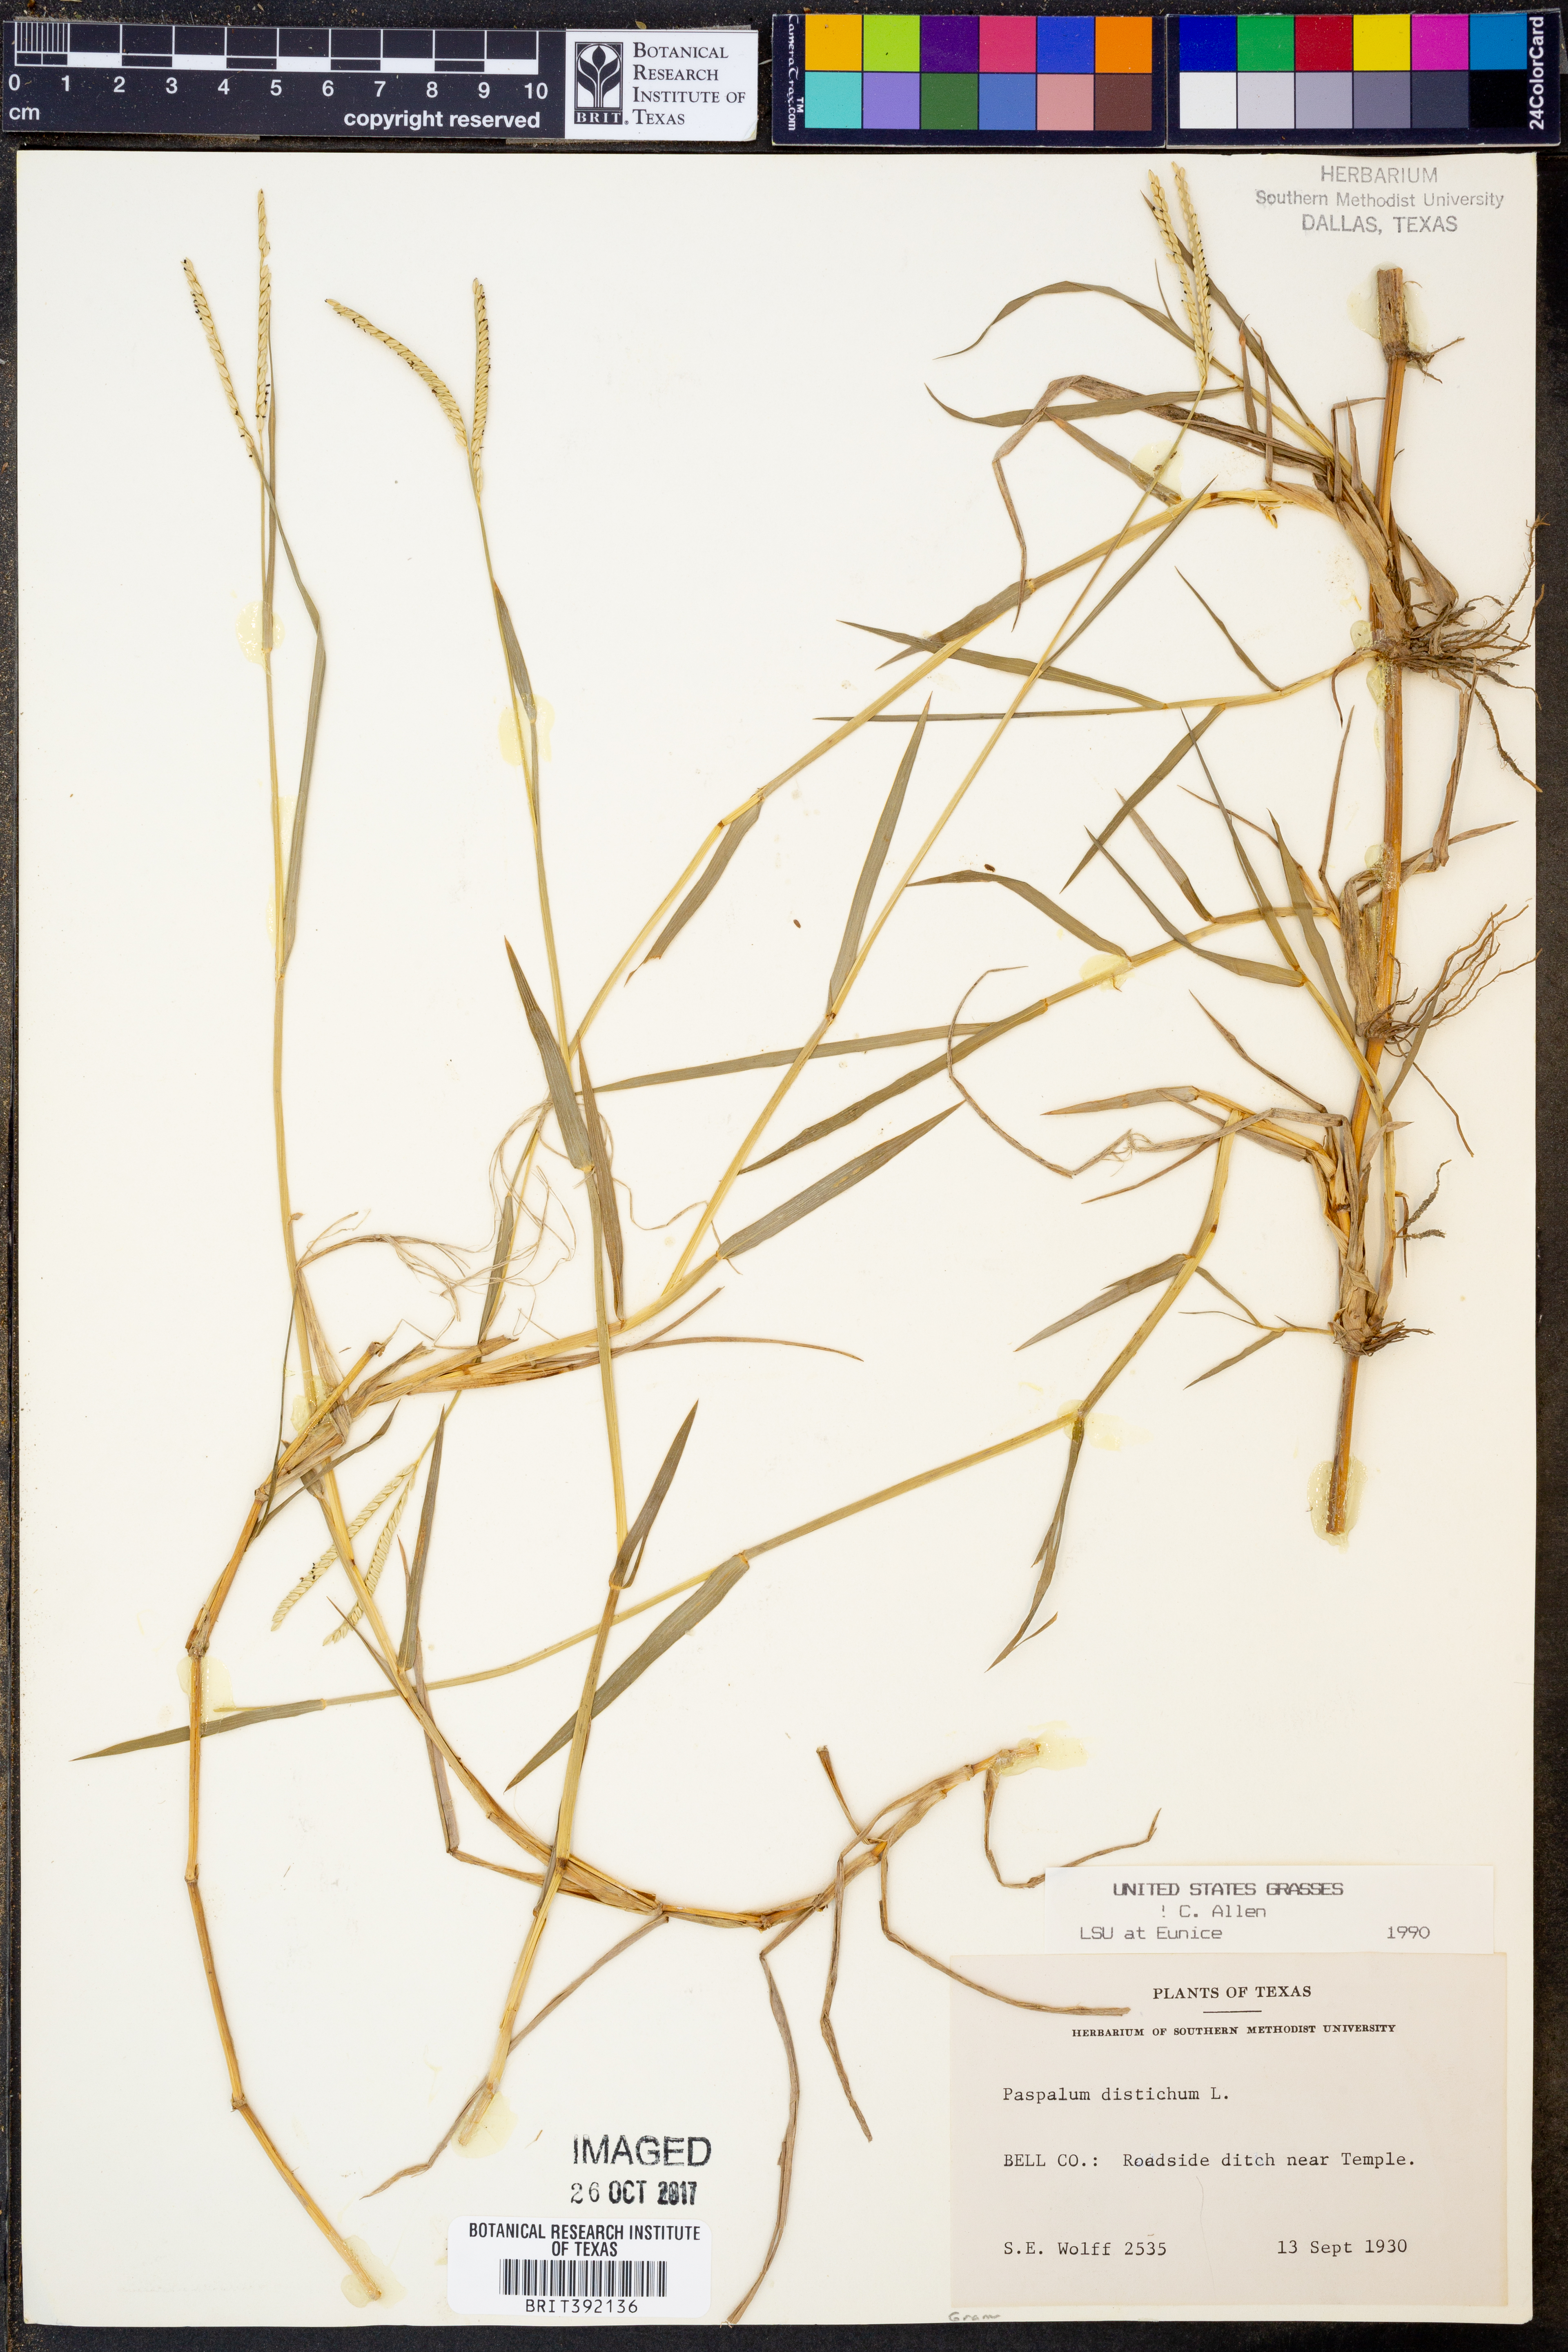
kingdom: Plantae
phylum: Tracheophyta
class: Liliopsida
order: Poales
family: Poaceae
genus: Paspalum
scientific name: Paspalum distichum
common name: Knotgrass
